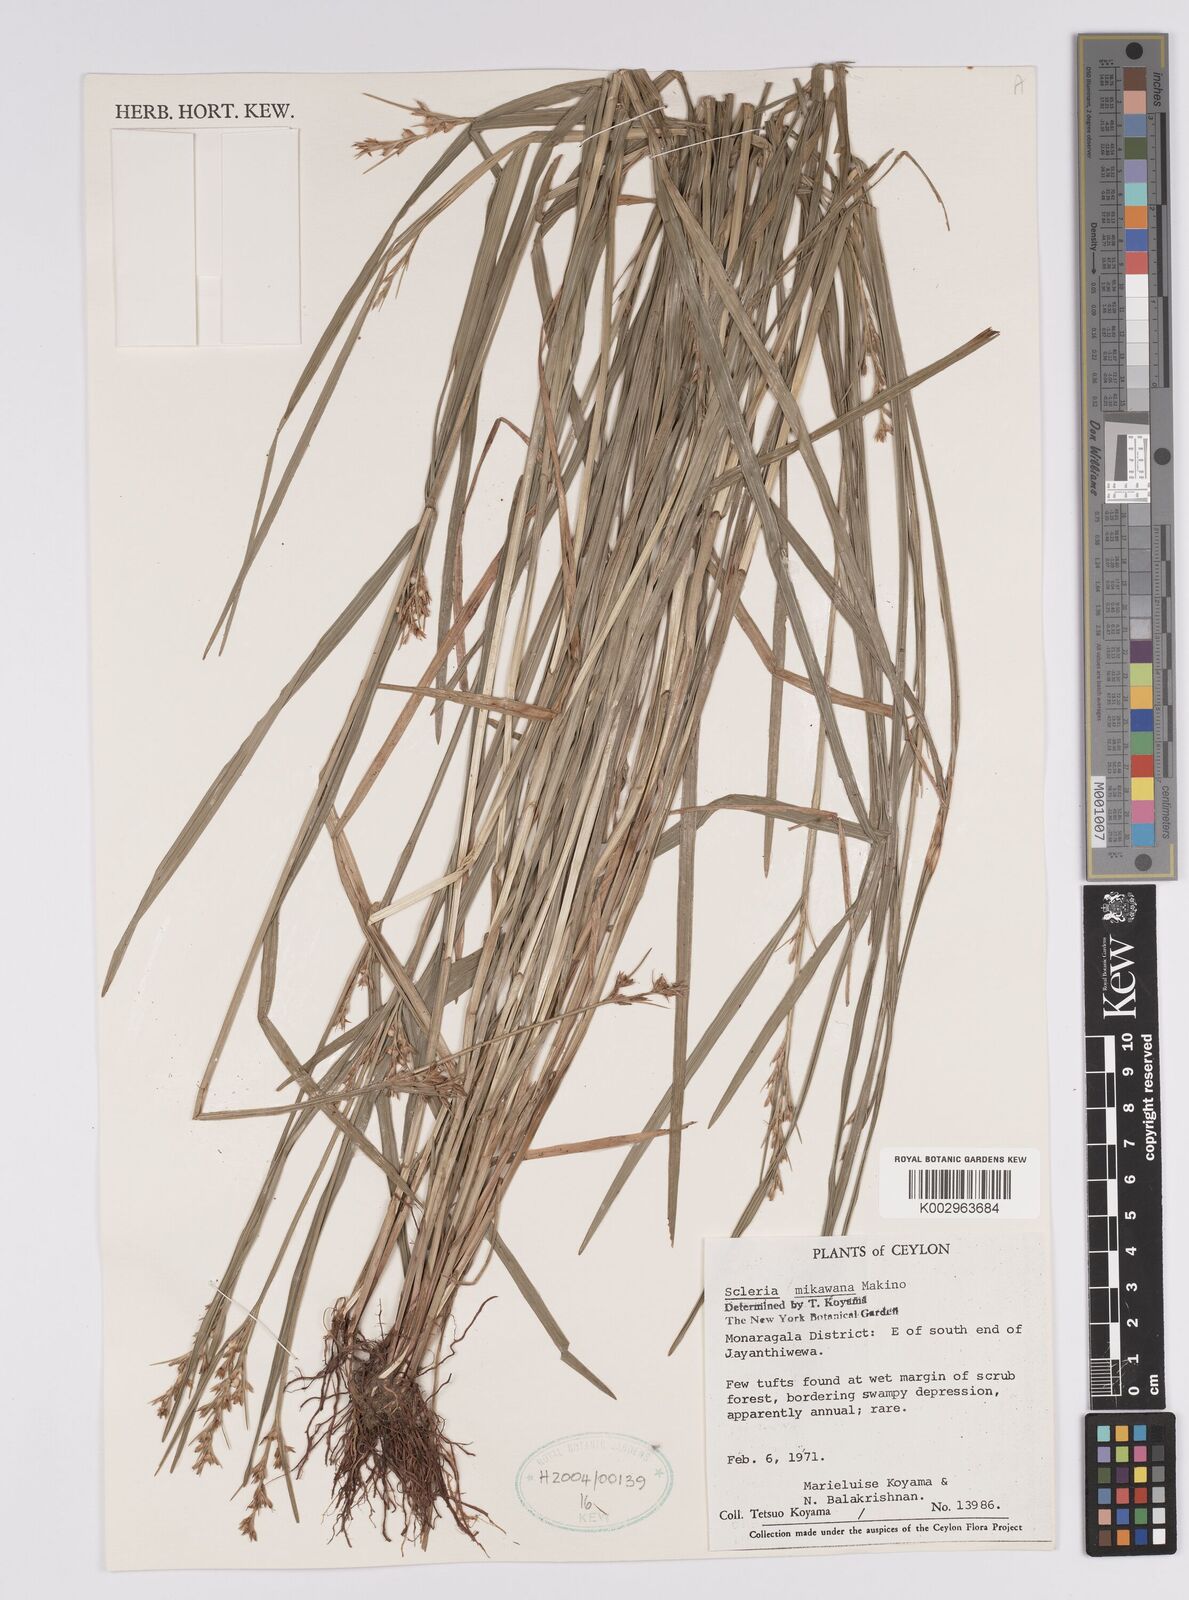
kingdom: Plantae
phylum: Tracheophyta
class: Liliopsida
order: Poales
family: Cyperaceae
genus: Scleria
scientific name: Scleria mikawana
